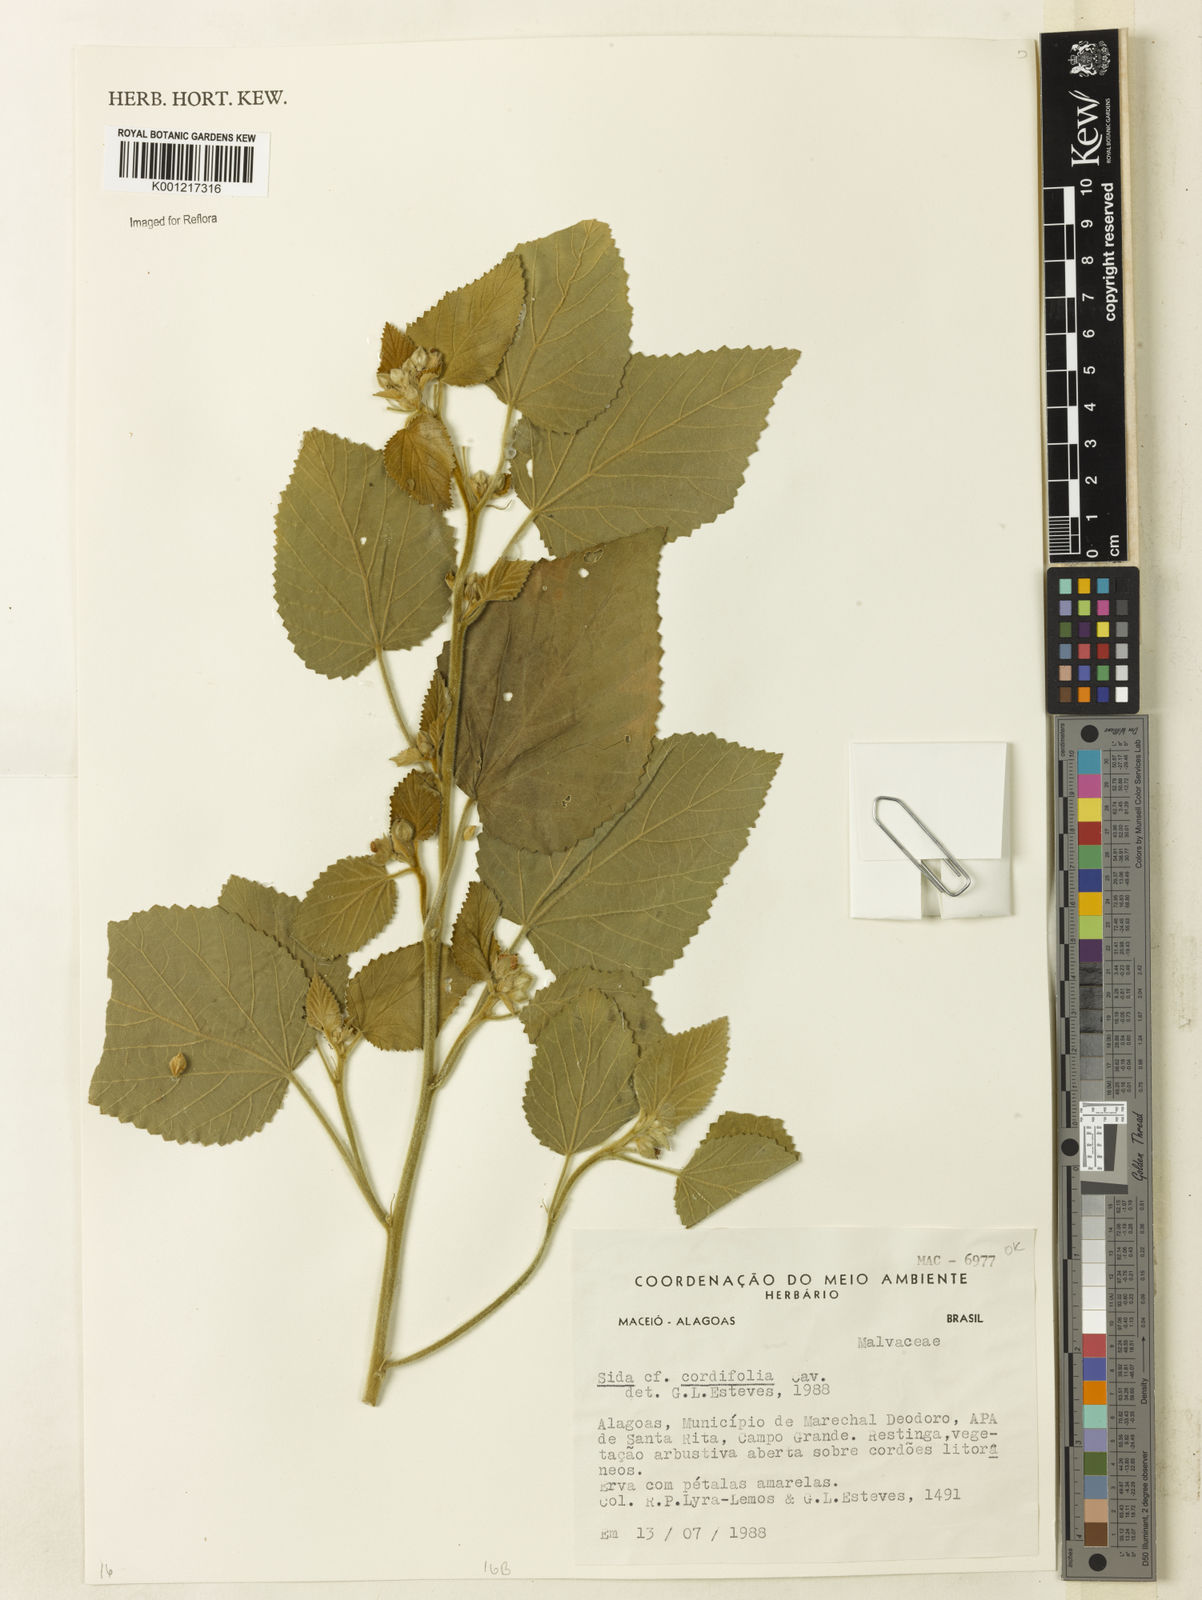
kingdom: Plantae
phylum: Tracheophyta
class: Magnoliopsida
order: Malvales
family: Malvaceae
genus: Sida
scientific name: Sida cordifolia
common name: Ilima
